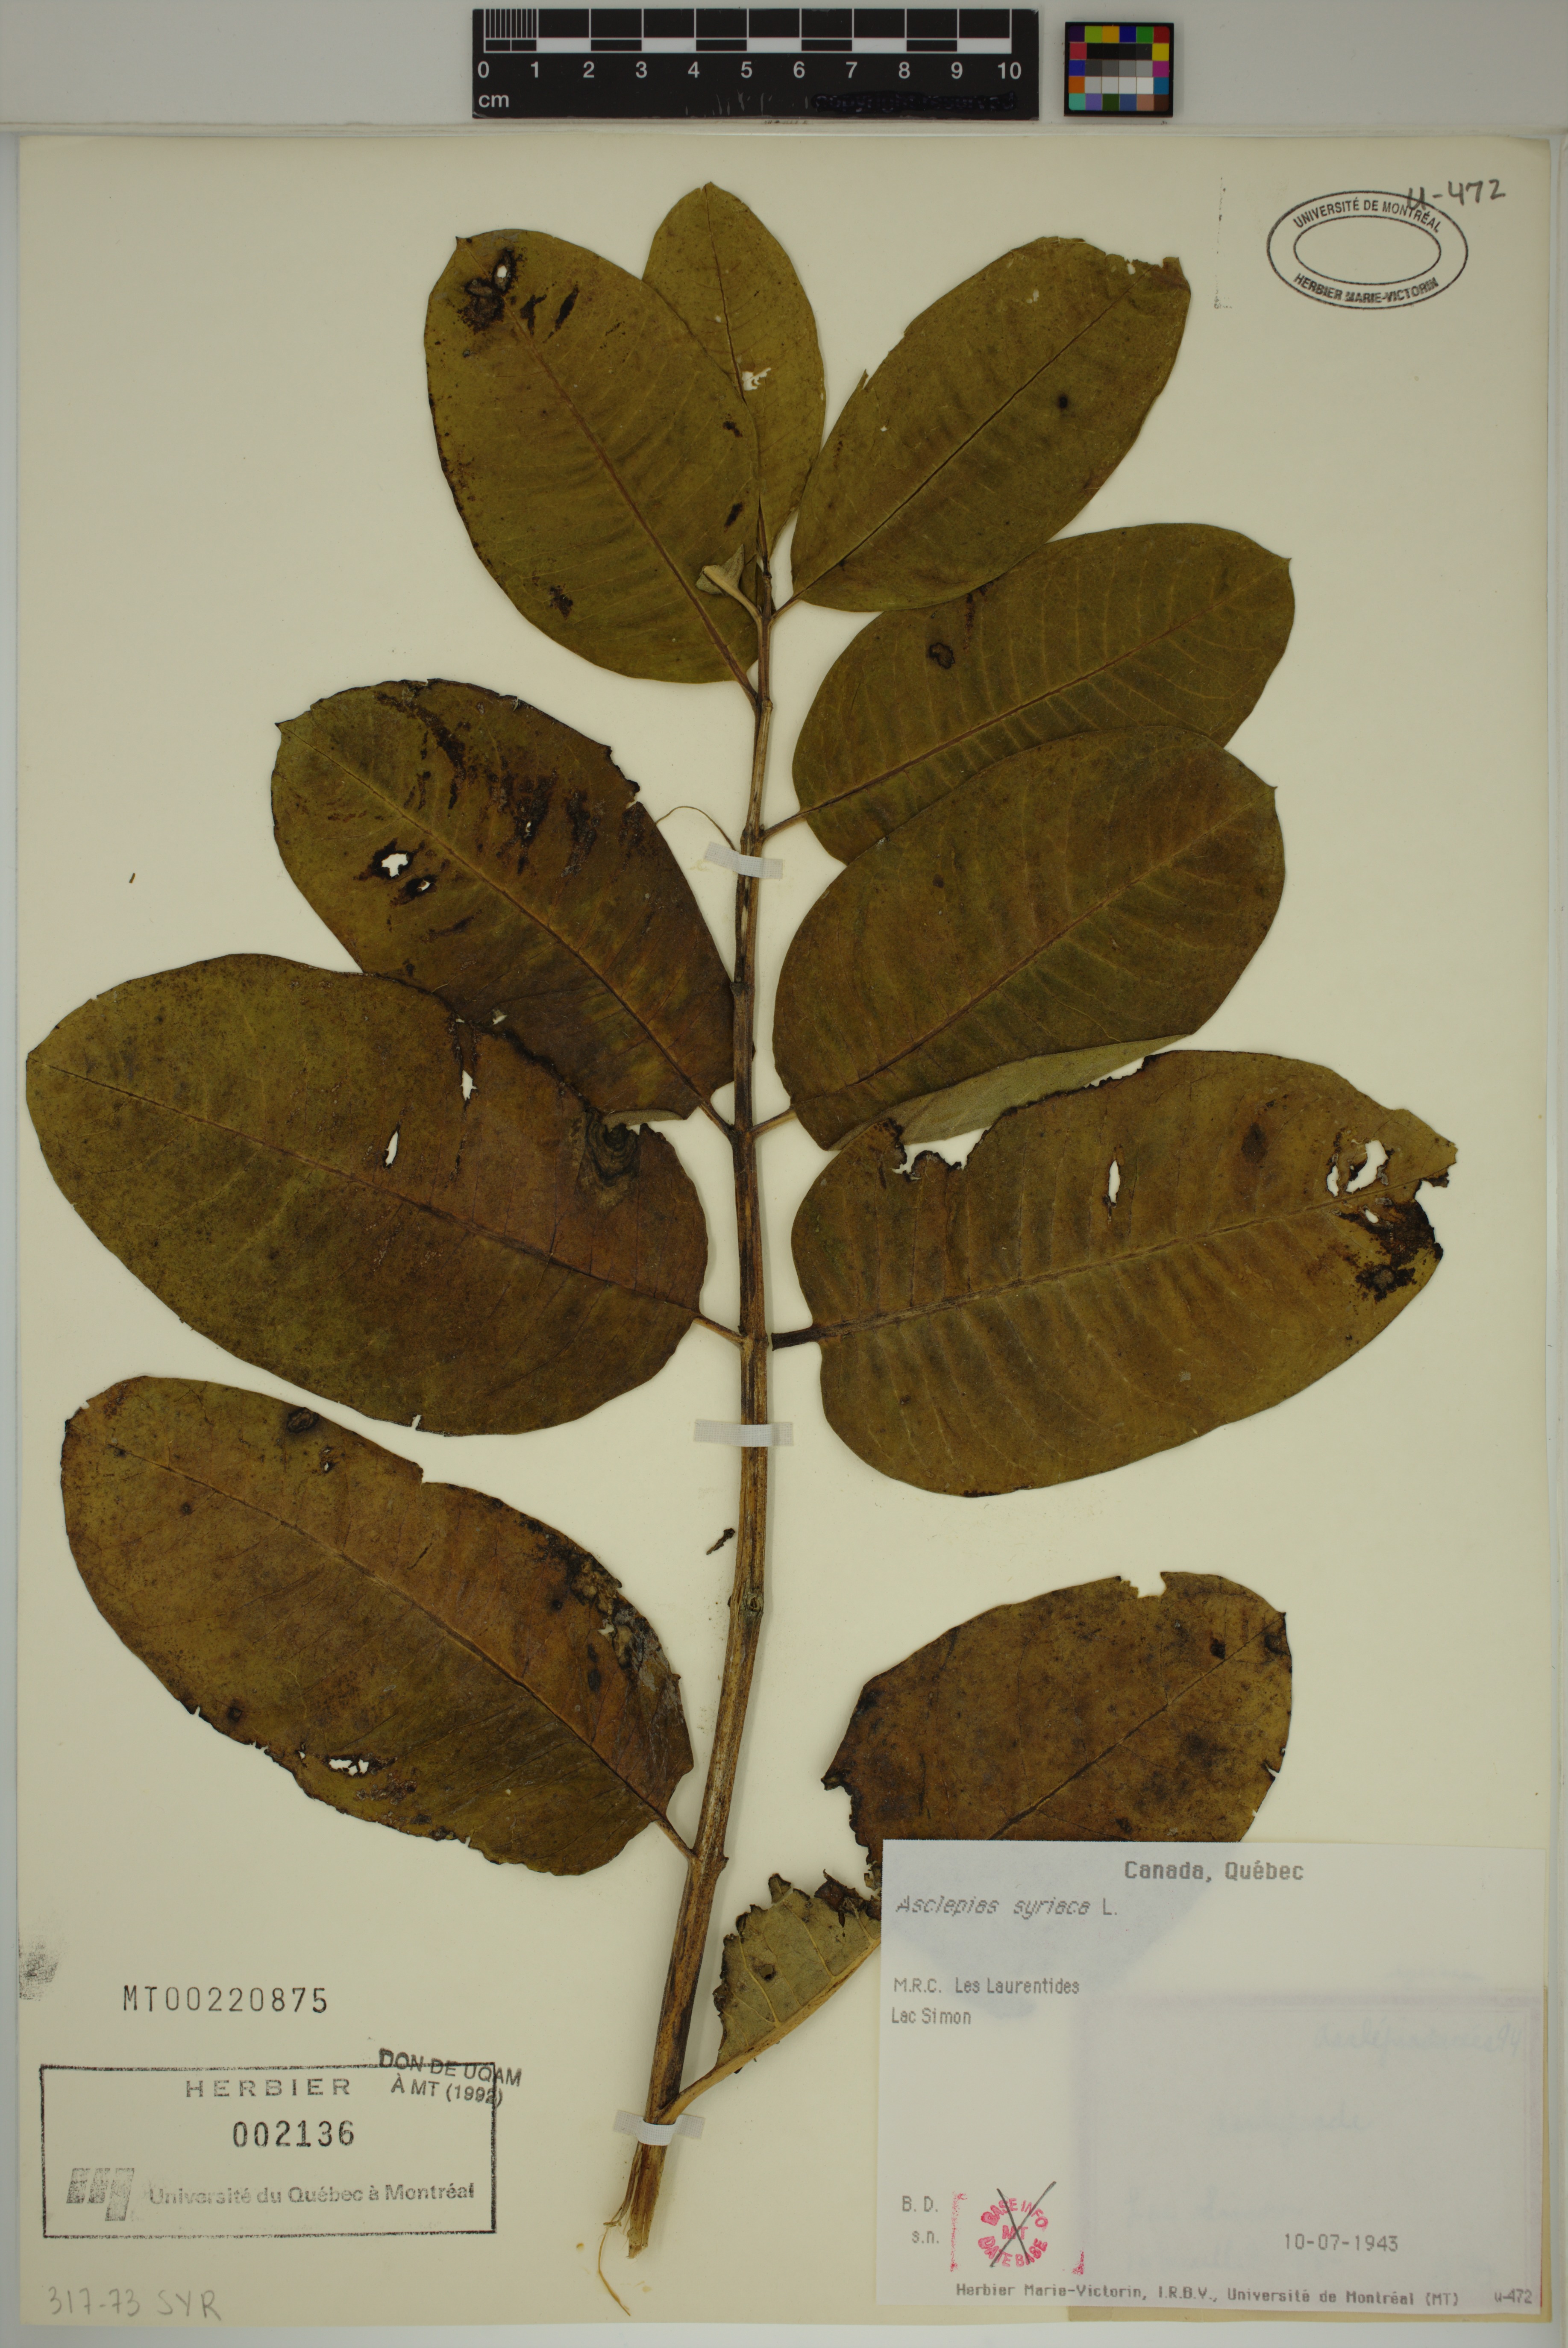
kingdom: Plantae
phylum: Tracheophyta
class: Magnoliopsida
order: Gentianales
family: Apocynaceae
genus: Asclepias
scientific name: Asclepias syriaca
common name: Common milkweed
